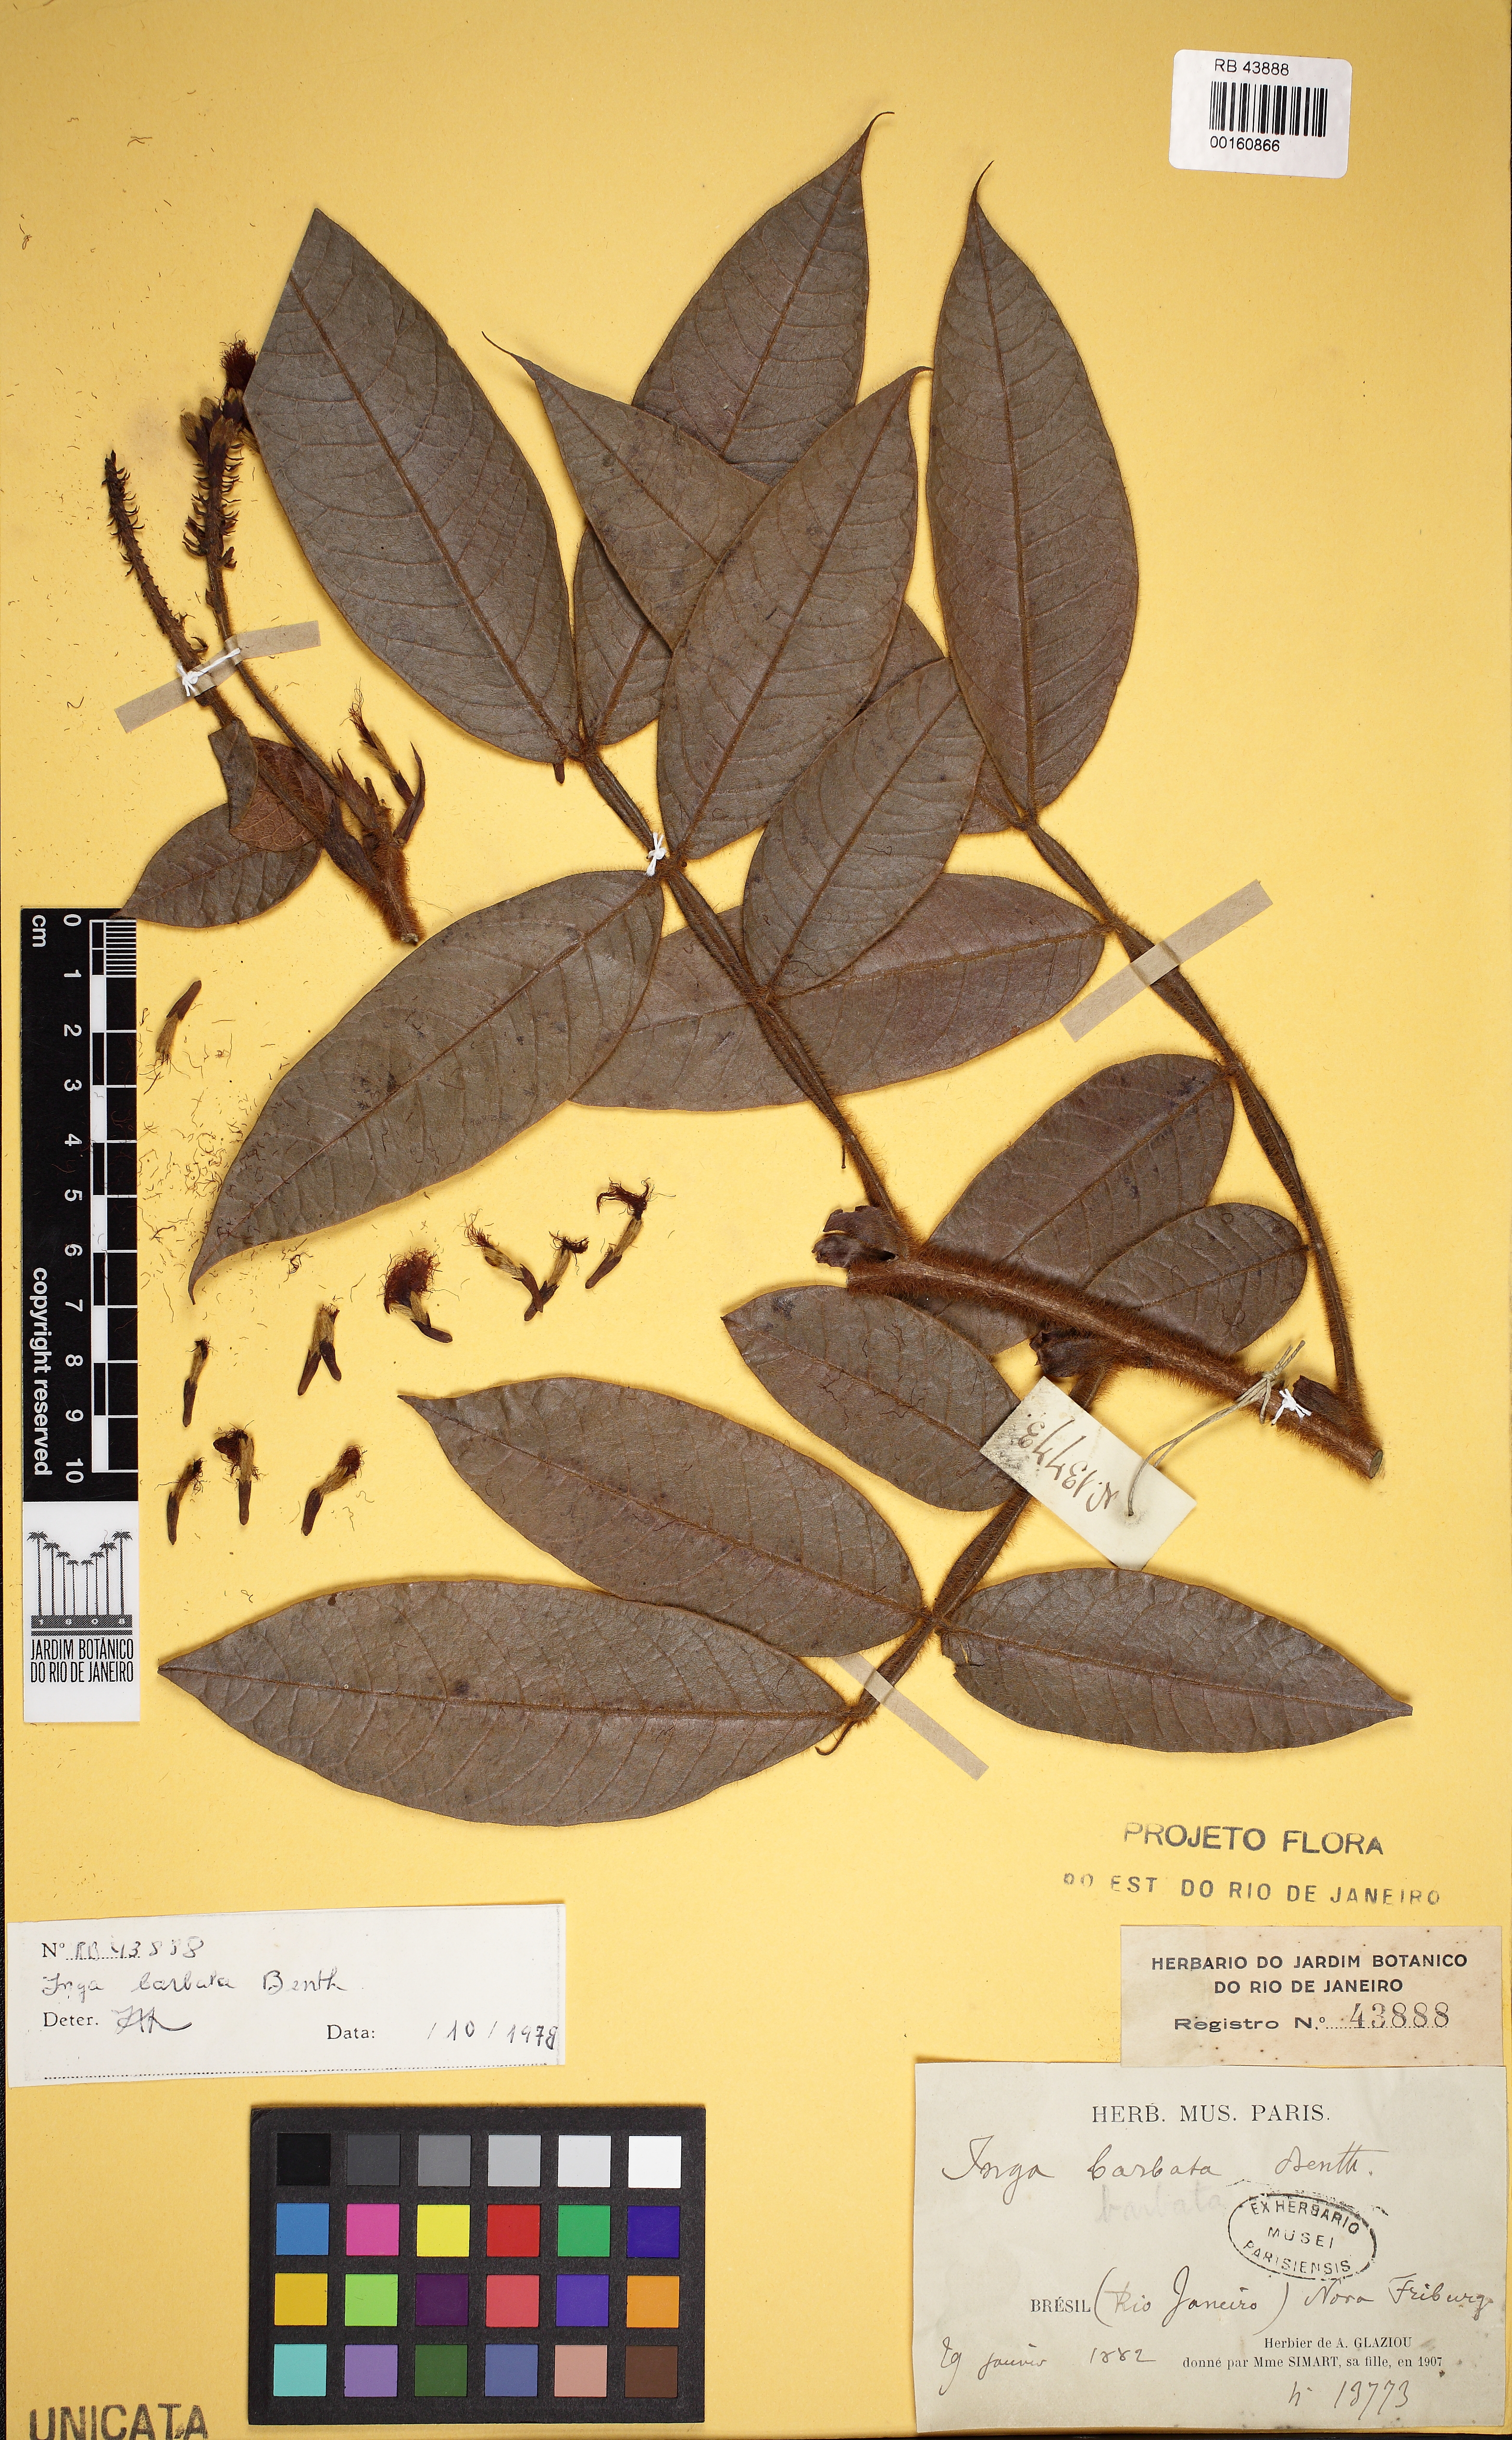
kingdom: Plantae
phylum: Tracheophyta
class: Magnoliopsida
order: Fabales
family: Fabaceae
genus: Inga
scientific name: Inga barbata
